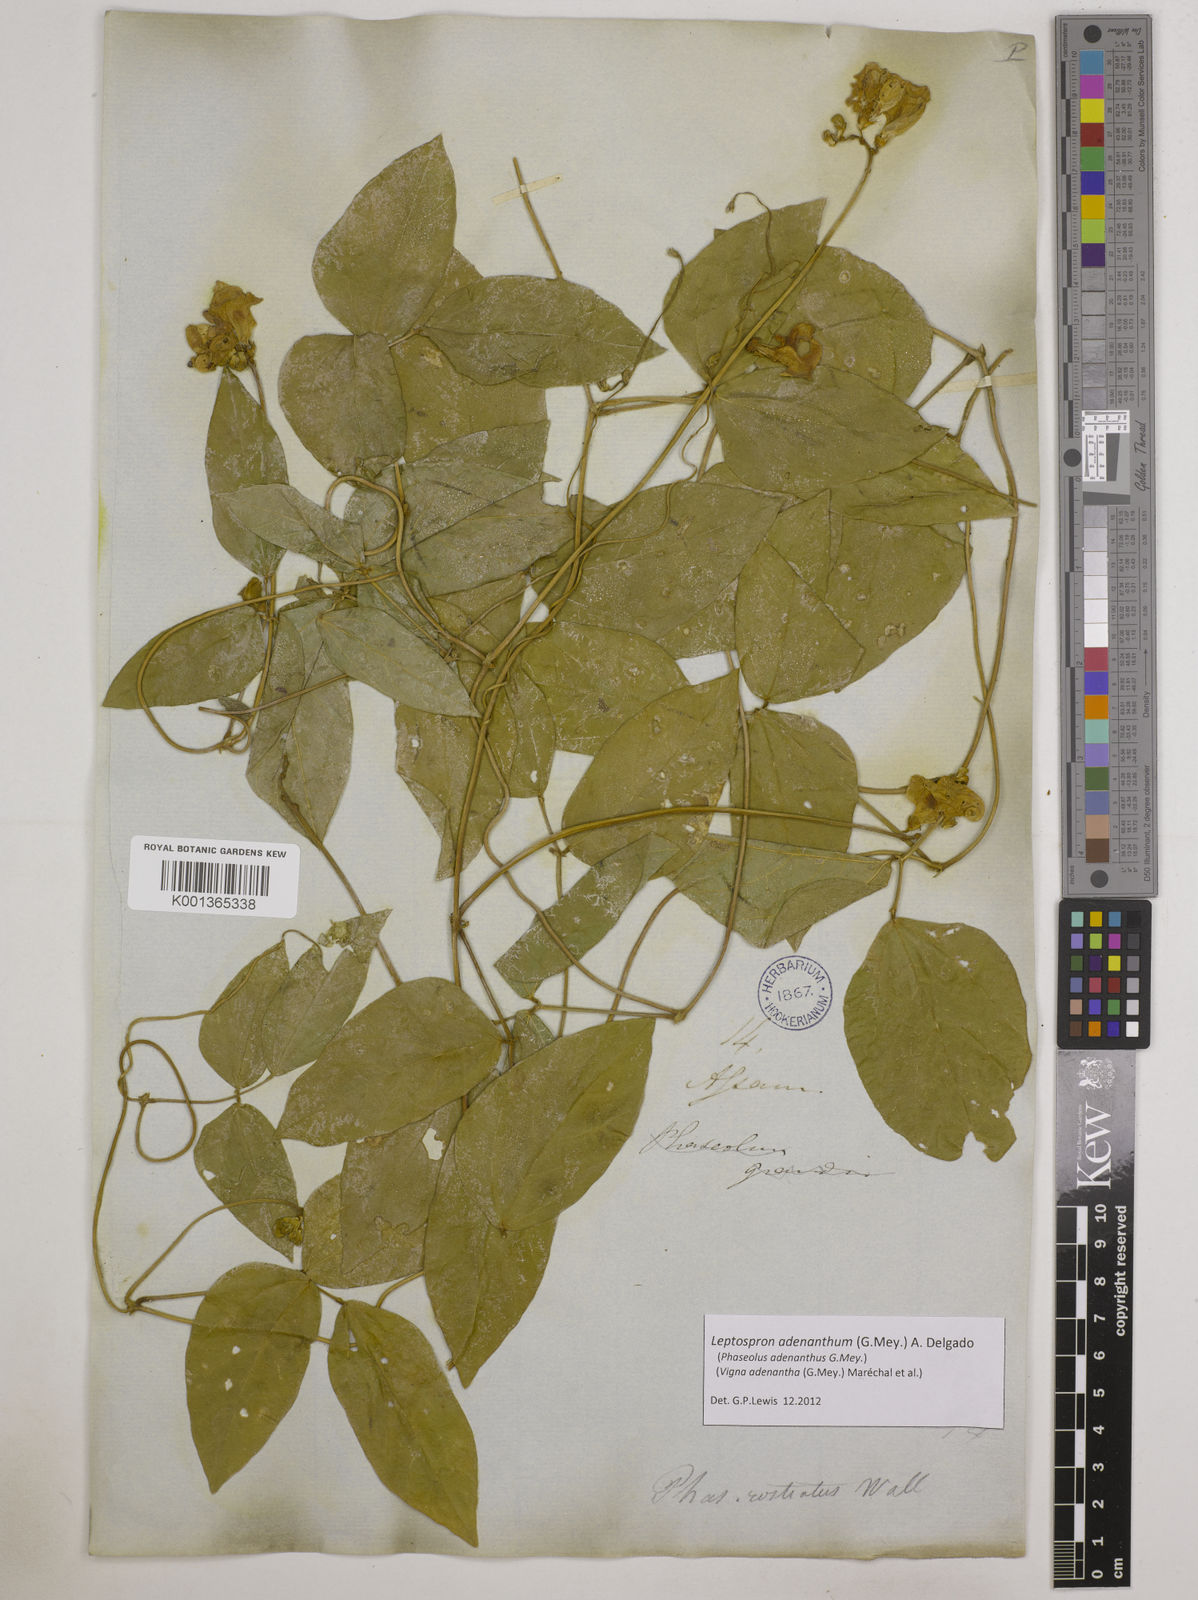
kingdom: Plantae
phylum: Tracheophyta
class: Magnoliopsida
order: Fabales
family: Fabaceae
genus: Leptospron
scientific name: Leptospron adenanthum
